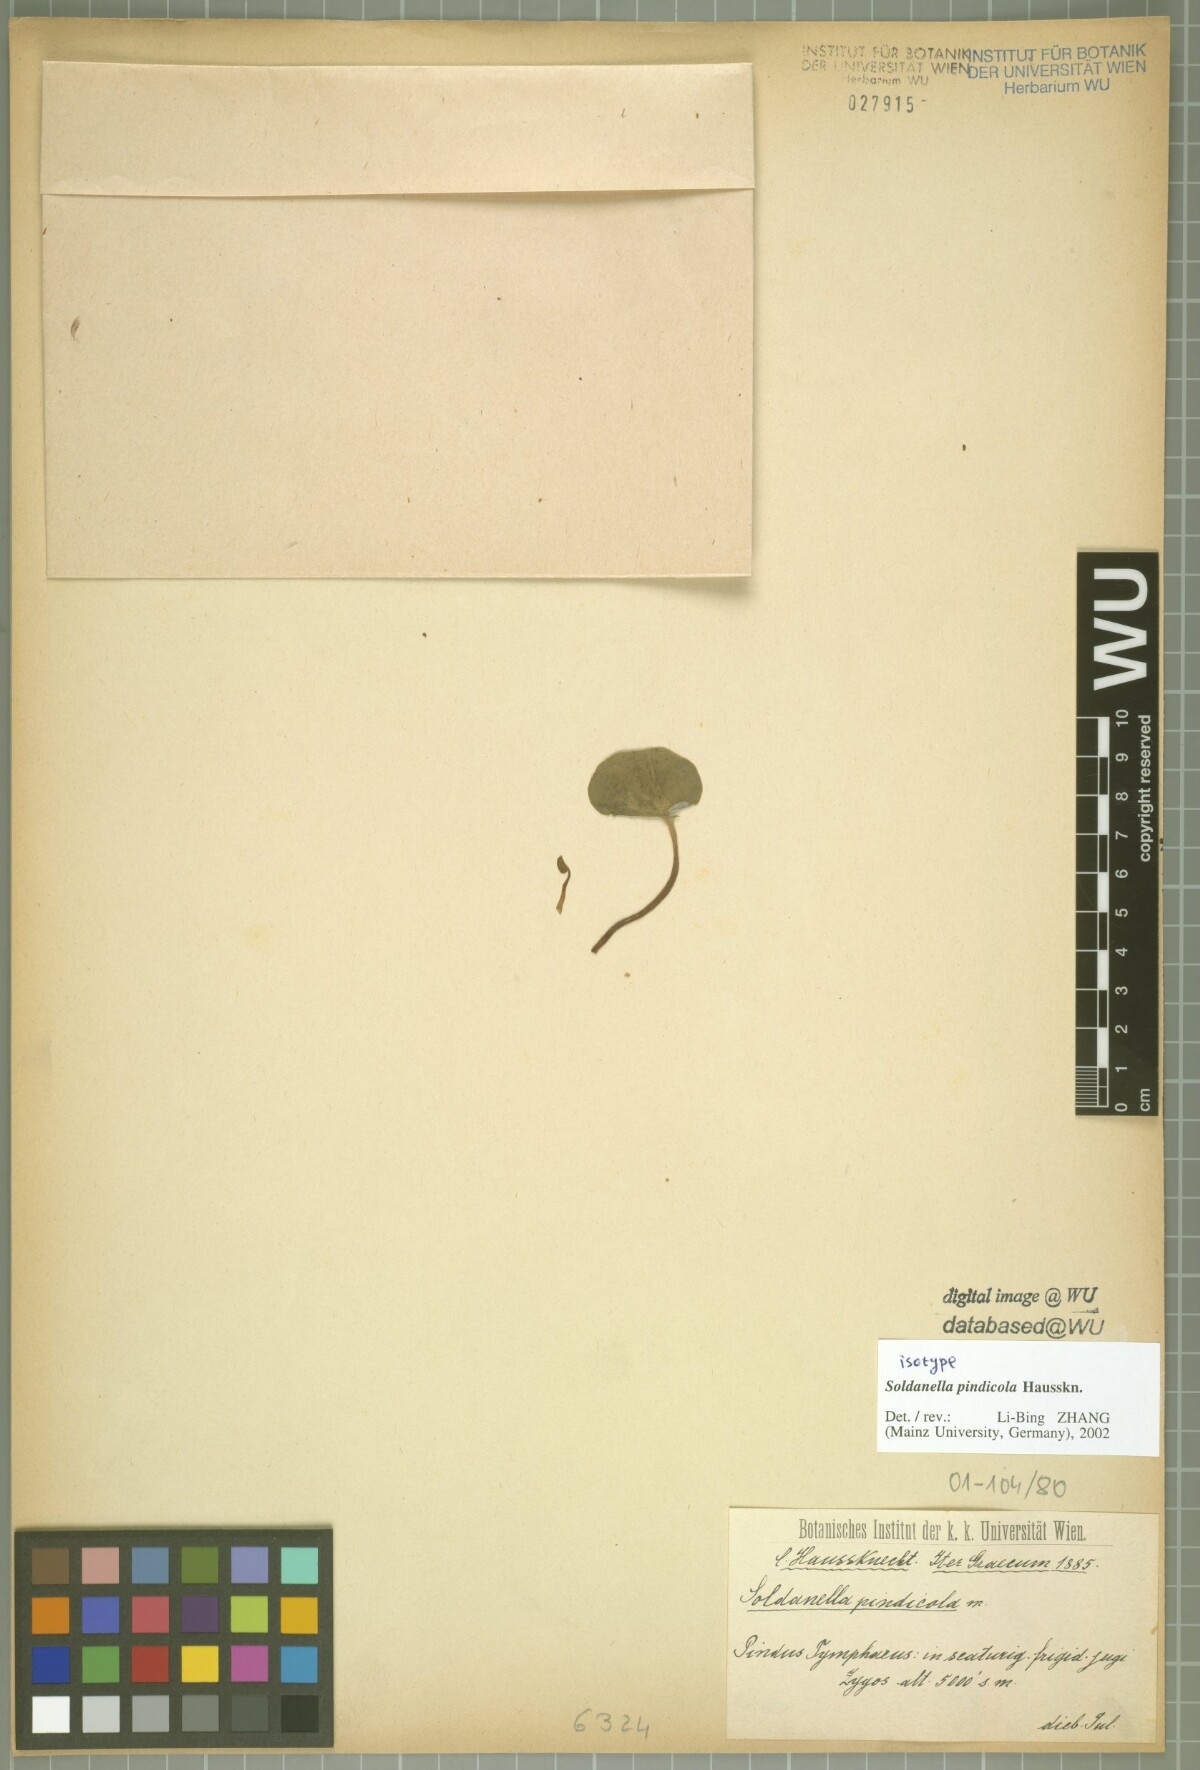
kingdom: Plantae
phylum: Tracheophyta
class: Magnoliopsida
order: Ericales
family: Primulaceae
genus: Soldanella
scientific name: Soldanella pindicola
